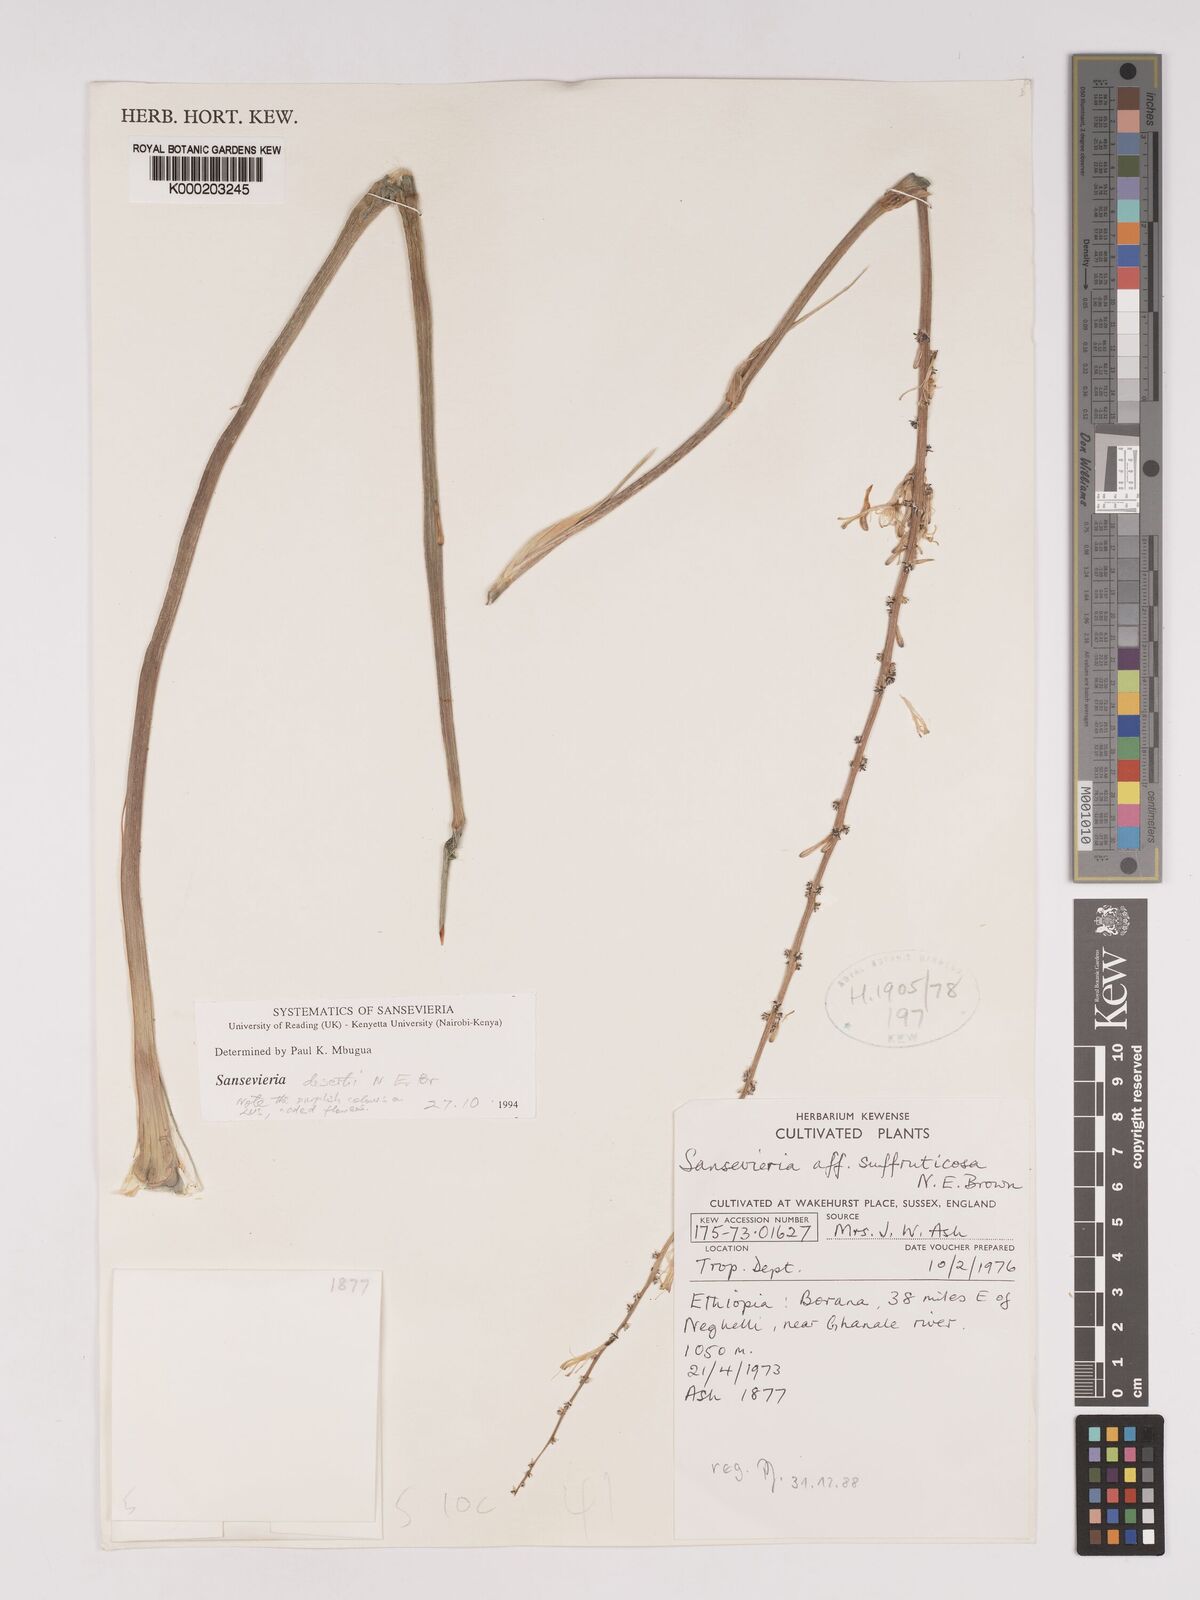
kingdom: Plantae
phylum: Tracheophyta
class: Liliopsida
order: Asparagales
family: Asparagaceae
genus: Dracaena
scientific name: Dracaena suffruticosa
